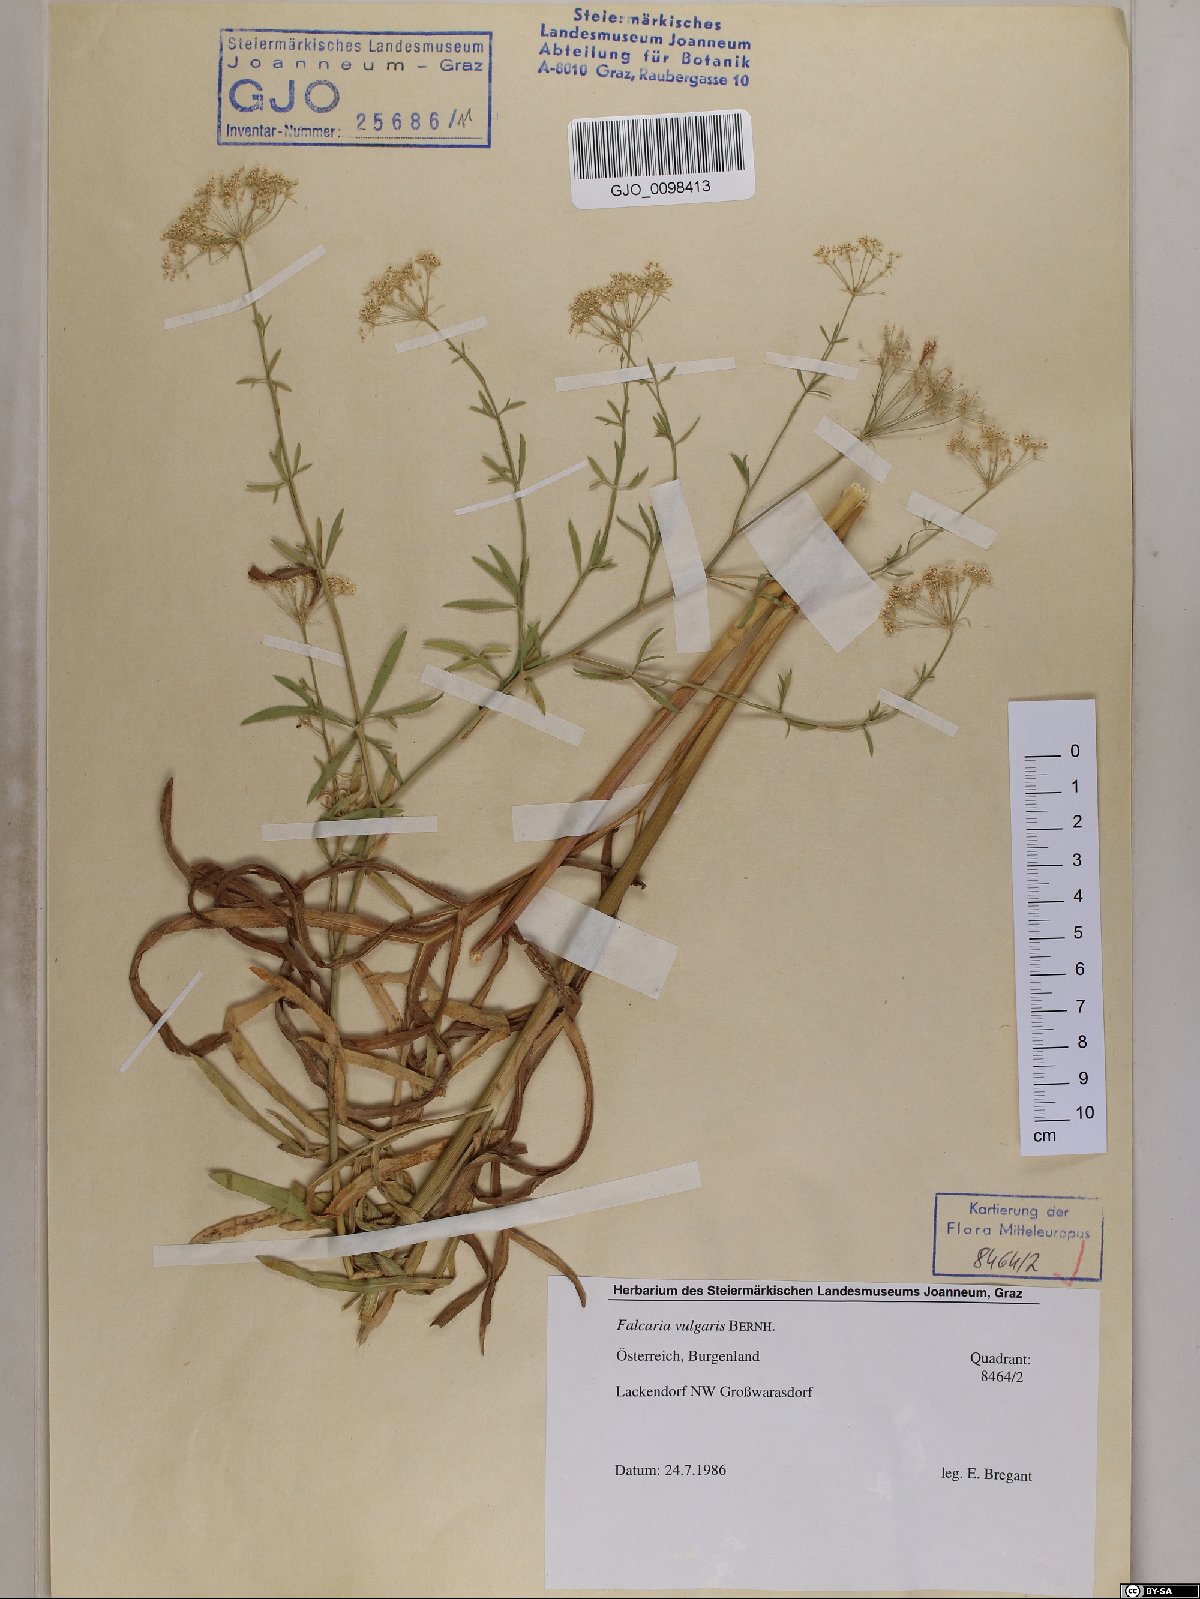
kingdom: Plantae
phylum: Tracheophyta
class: Magnoliopsida
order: Apiales
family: Apiaceae
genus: Falcaria
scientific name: Falcaria vulgaris
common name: Longleaf
